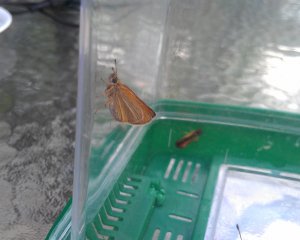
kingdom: Animalia
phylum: Arthropoda
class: Insecta
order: Lepidoptera
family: Hesperiidae
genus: Thymelicus
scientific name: Thymelicus lineola
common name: European Skipper
